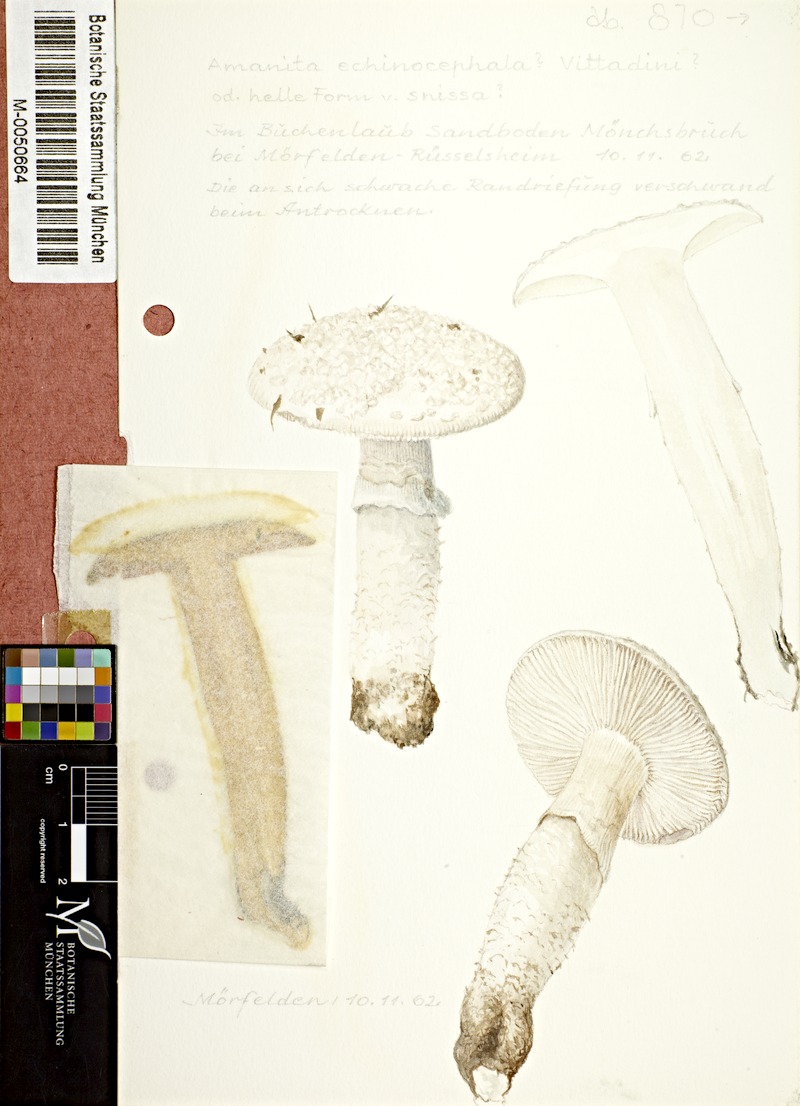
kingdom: Fungi
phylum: Basidiomycota
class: Agaricomycetes
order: Agaricales
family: Amanitaceae
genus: Aspidella
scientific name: Aspidella solitaria
